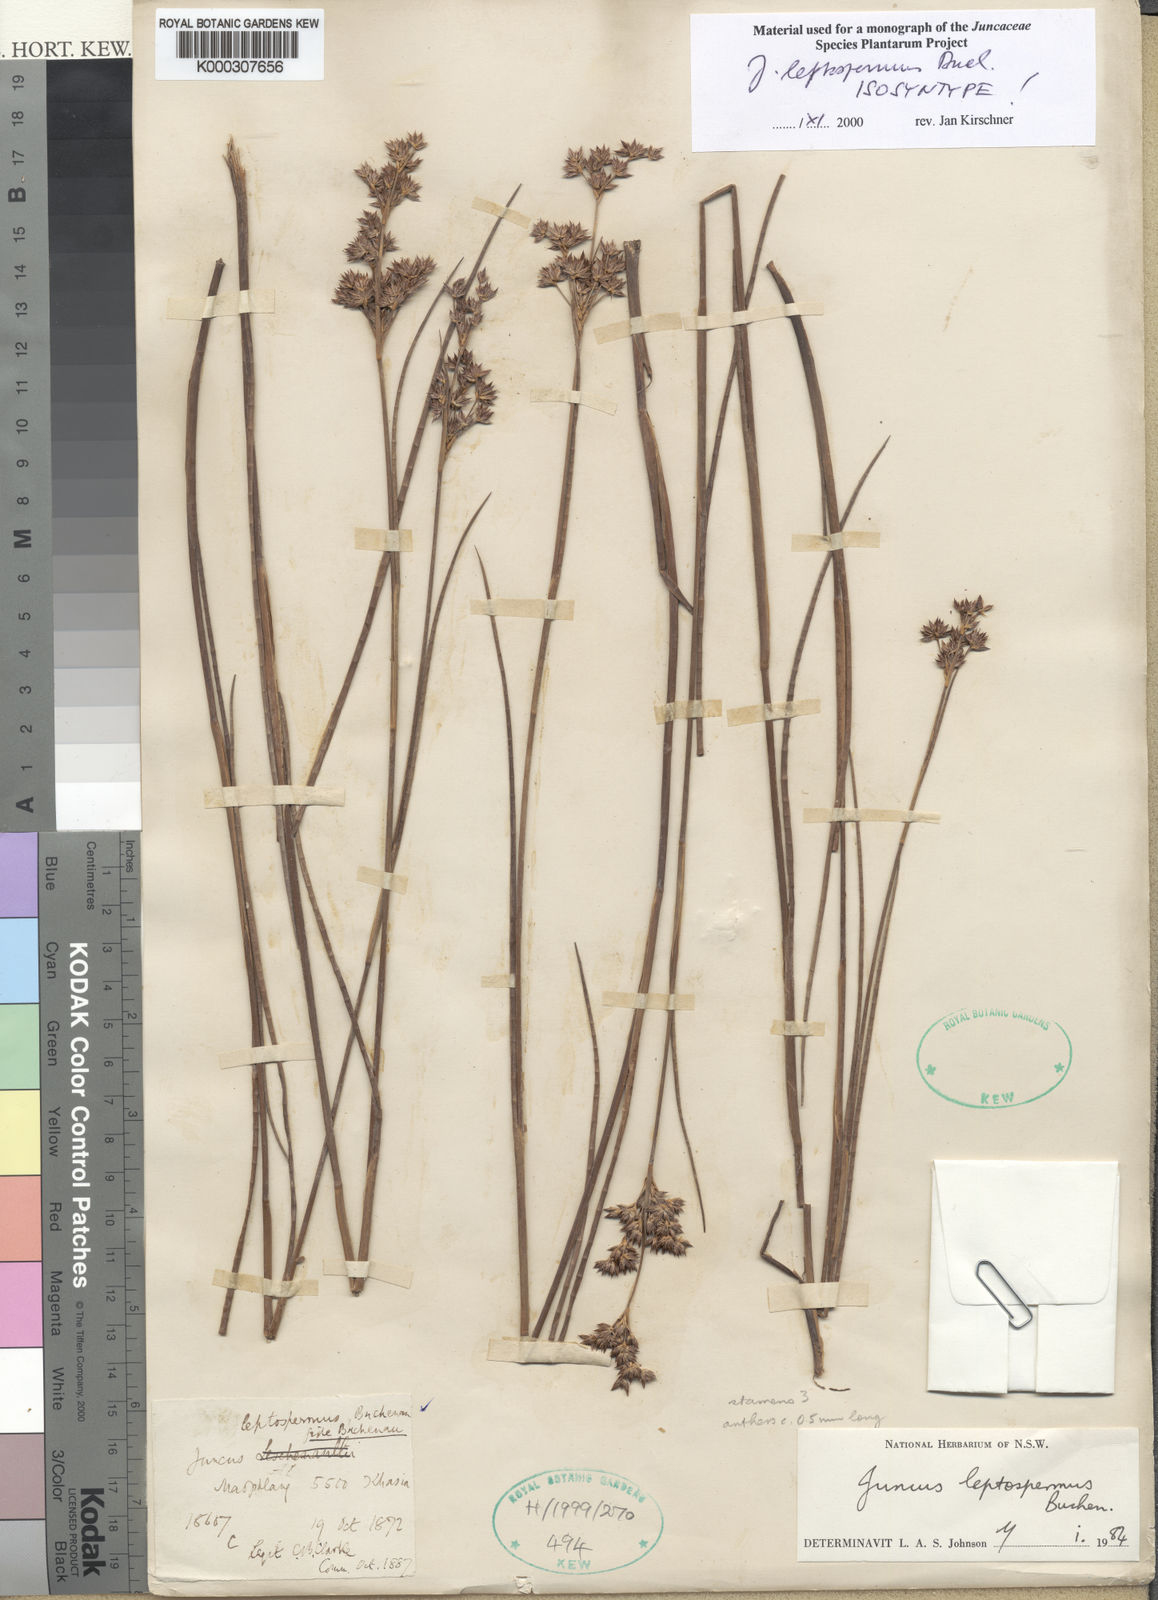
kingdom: Plantae
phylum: Tracheophyta
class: Liliopsida
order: Poales
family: Juncaceae
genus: Juncus
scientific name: Juncus leptospermus
